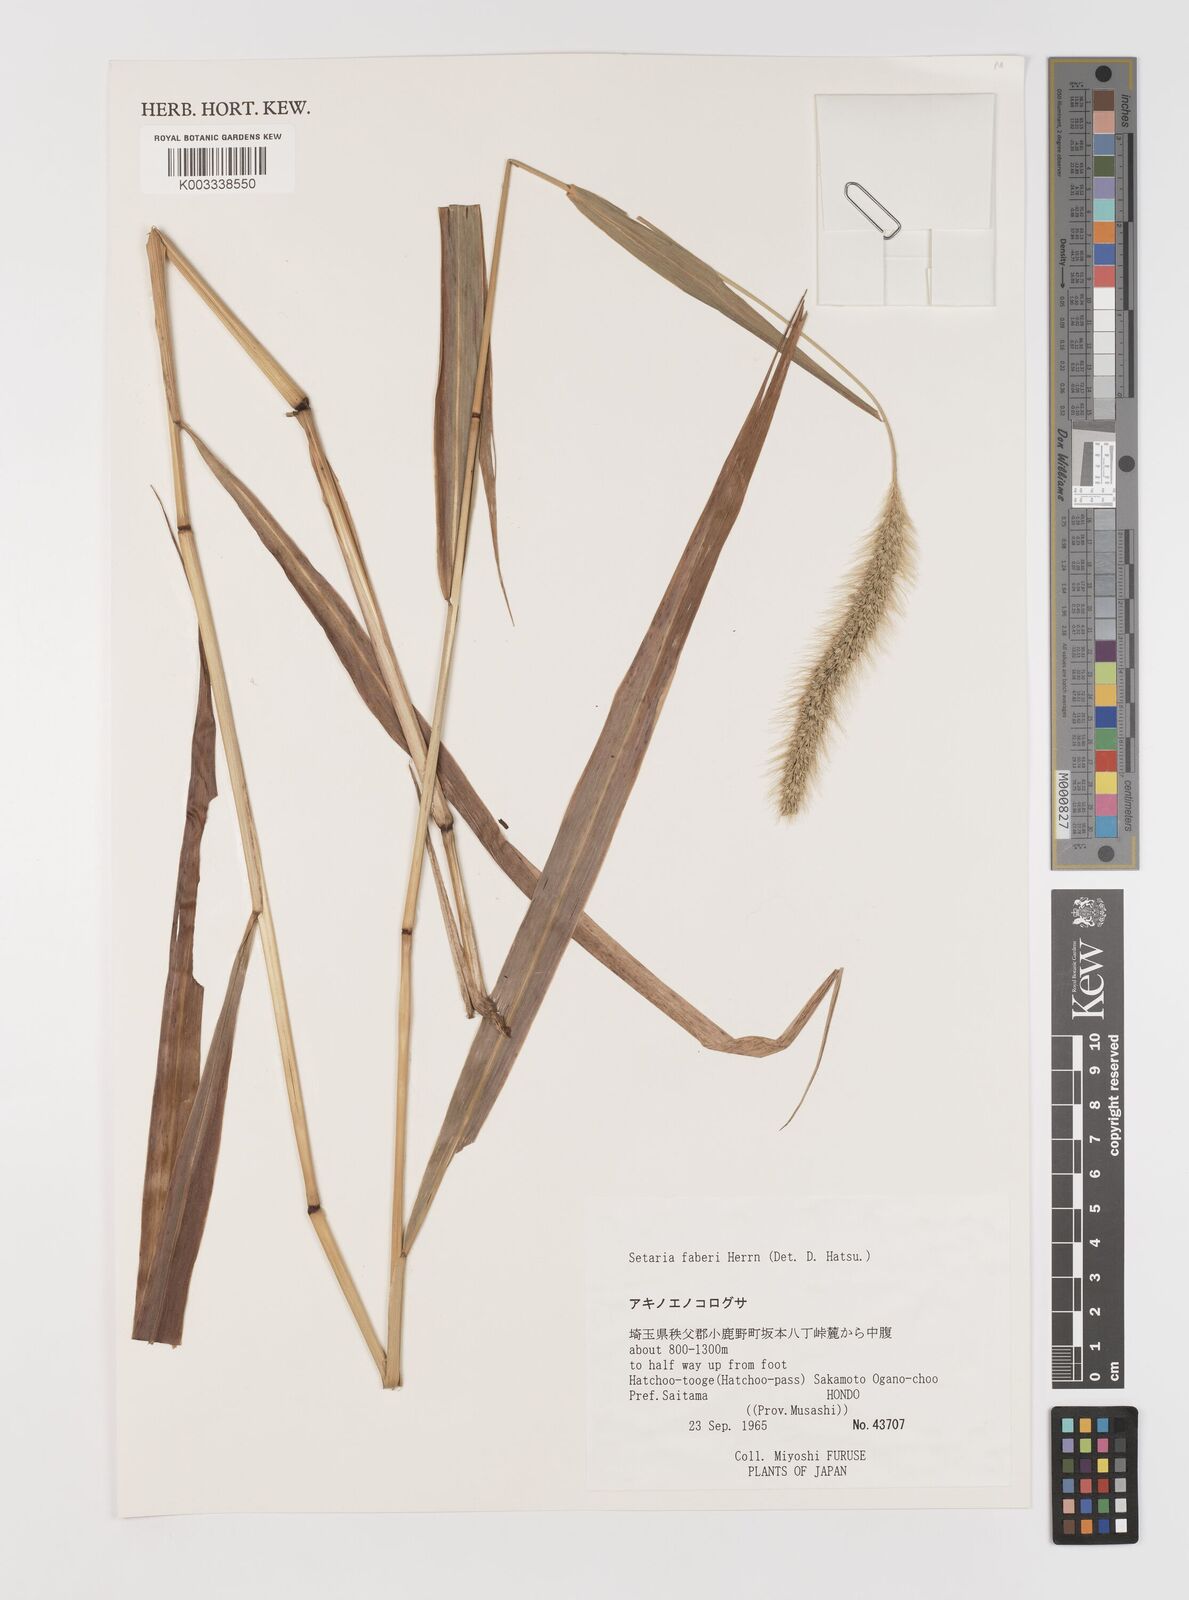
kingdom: Plantae
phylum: Tracheophyta
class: Liliopsida
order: Poales
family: Poaceae
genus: Setaria
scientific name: Setaria faberi
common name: Nodding bristle-grass
